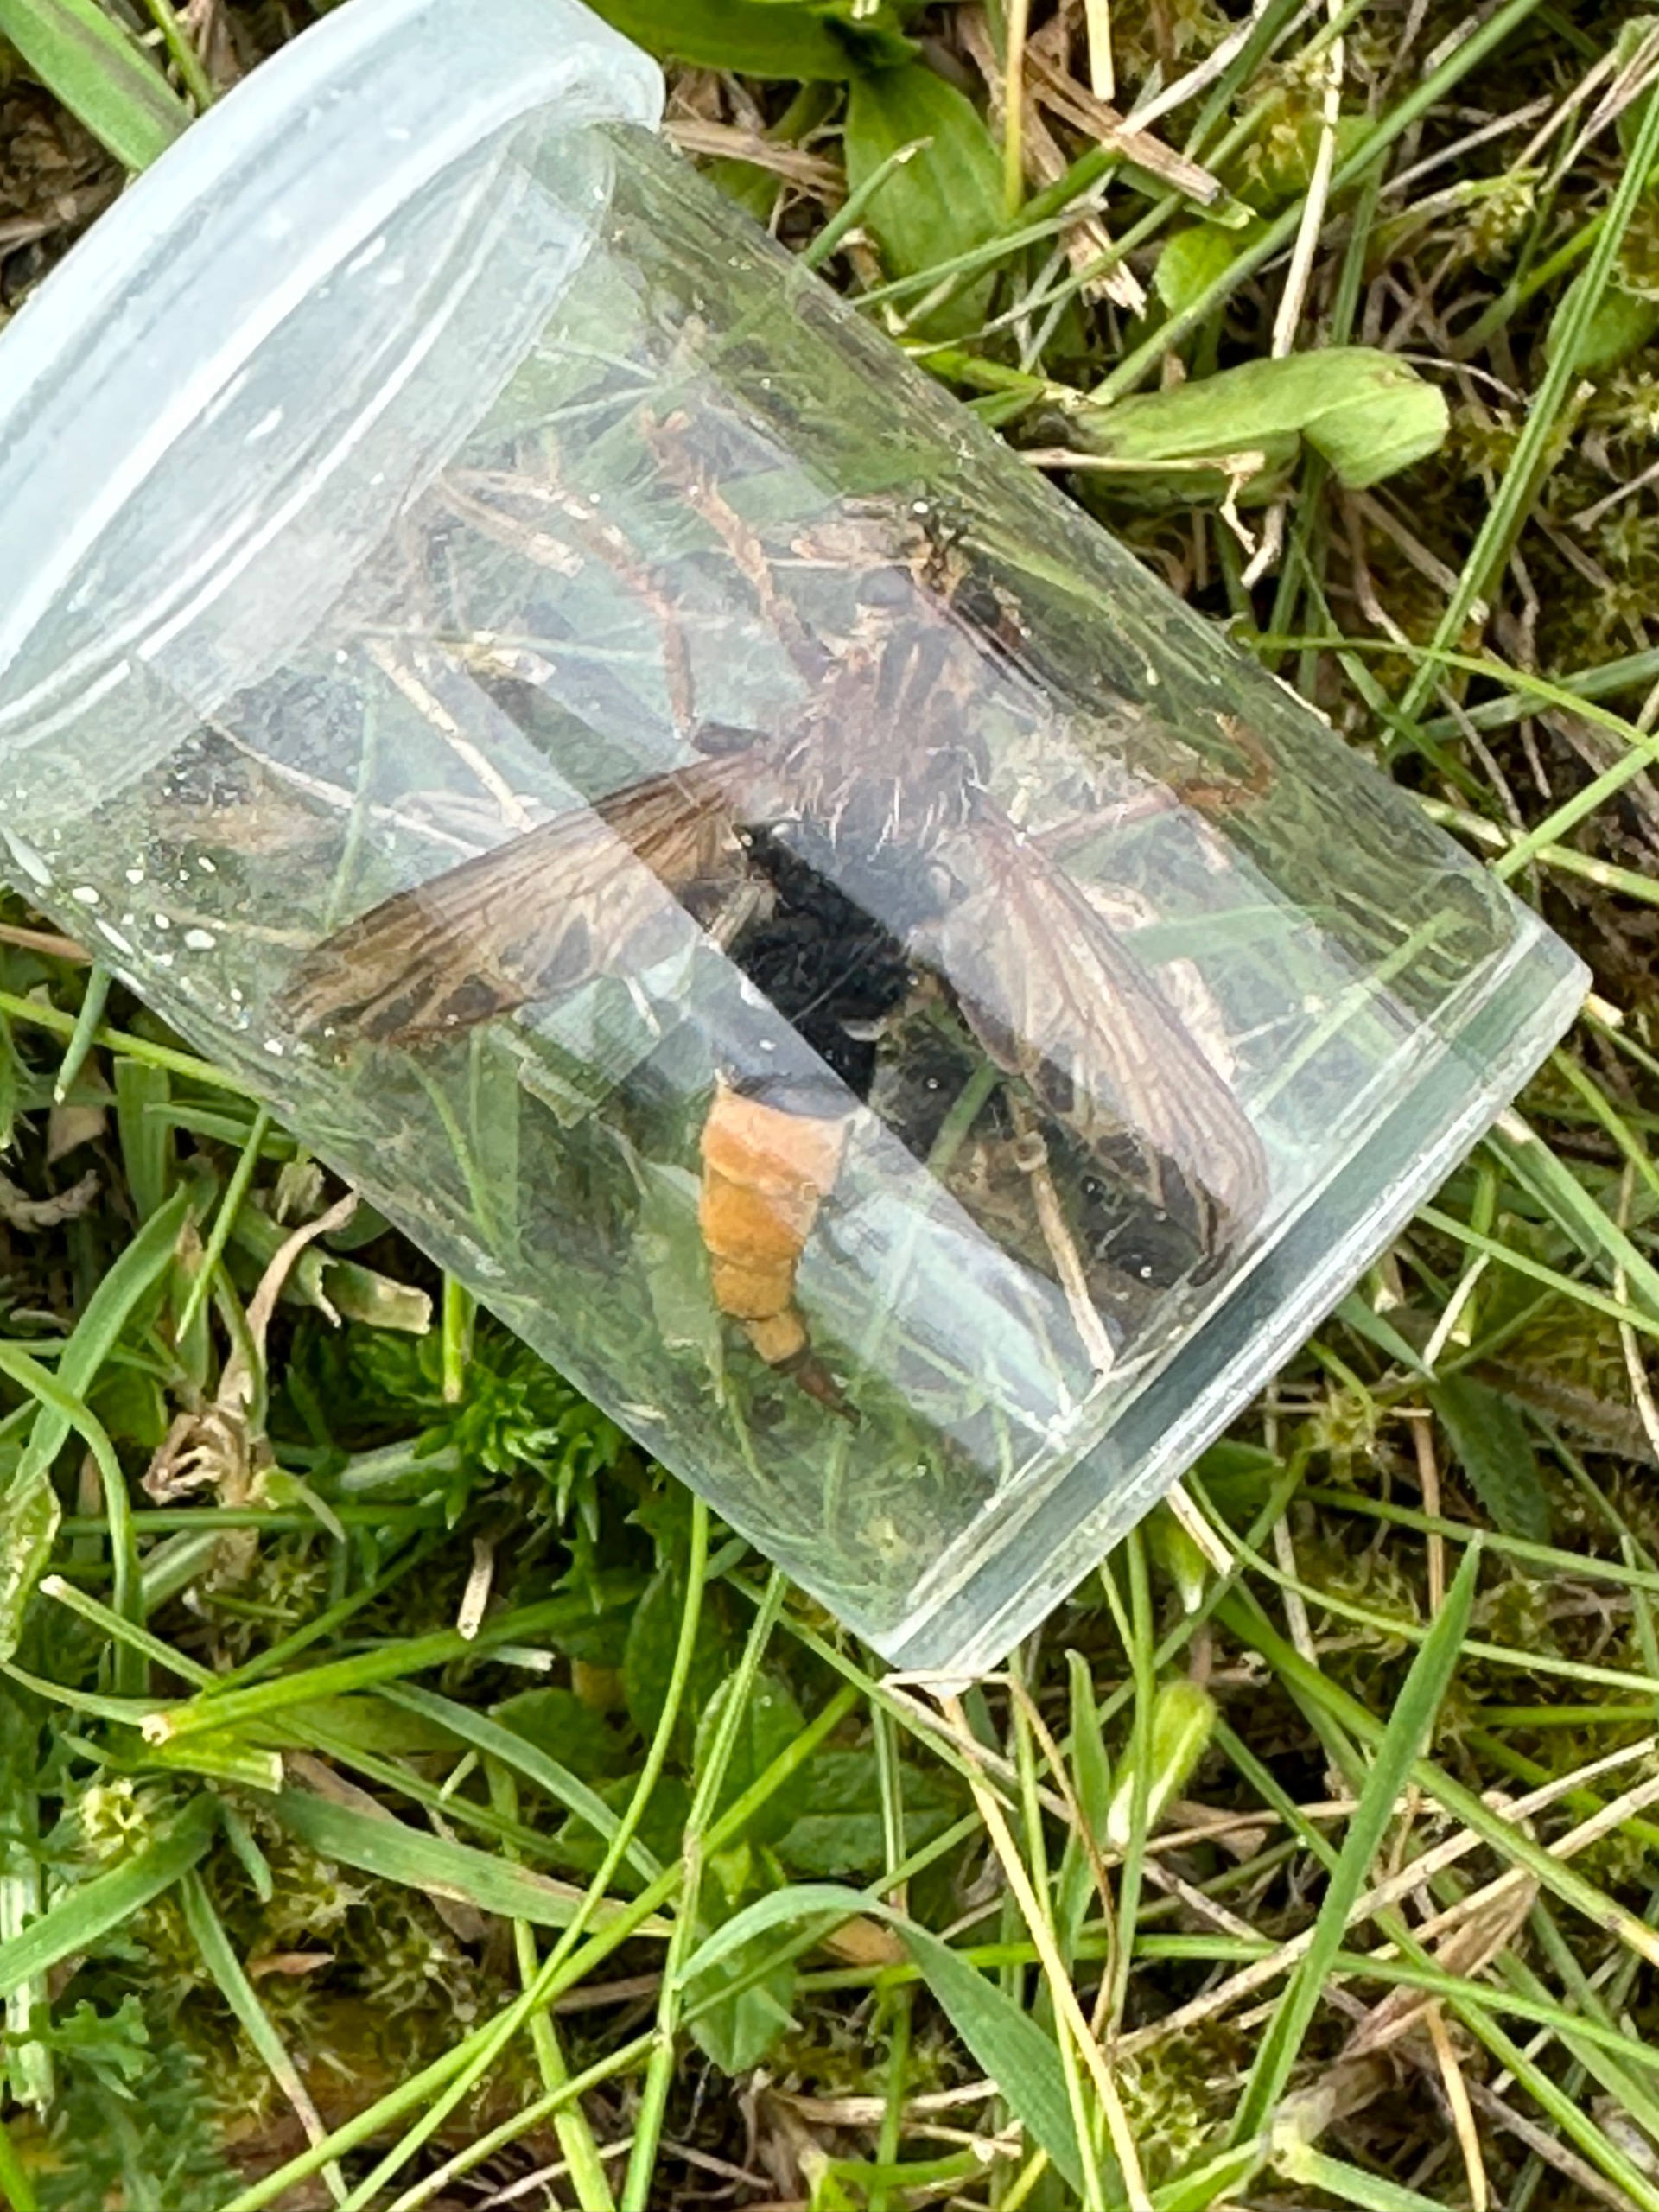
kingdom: Animalia
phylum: Arthropoda
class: Insecta
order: Diptera
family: Asilidae
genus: Asilus
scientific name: Asilus crabroniformis
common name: Stor gødningsrovflue
